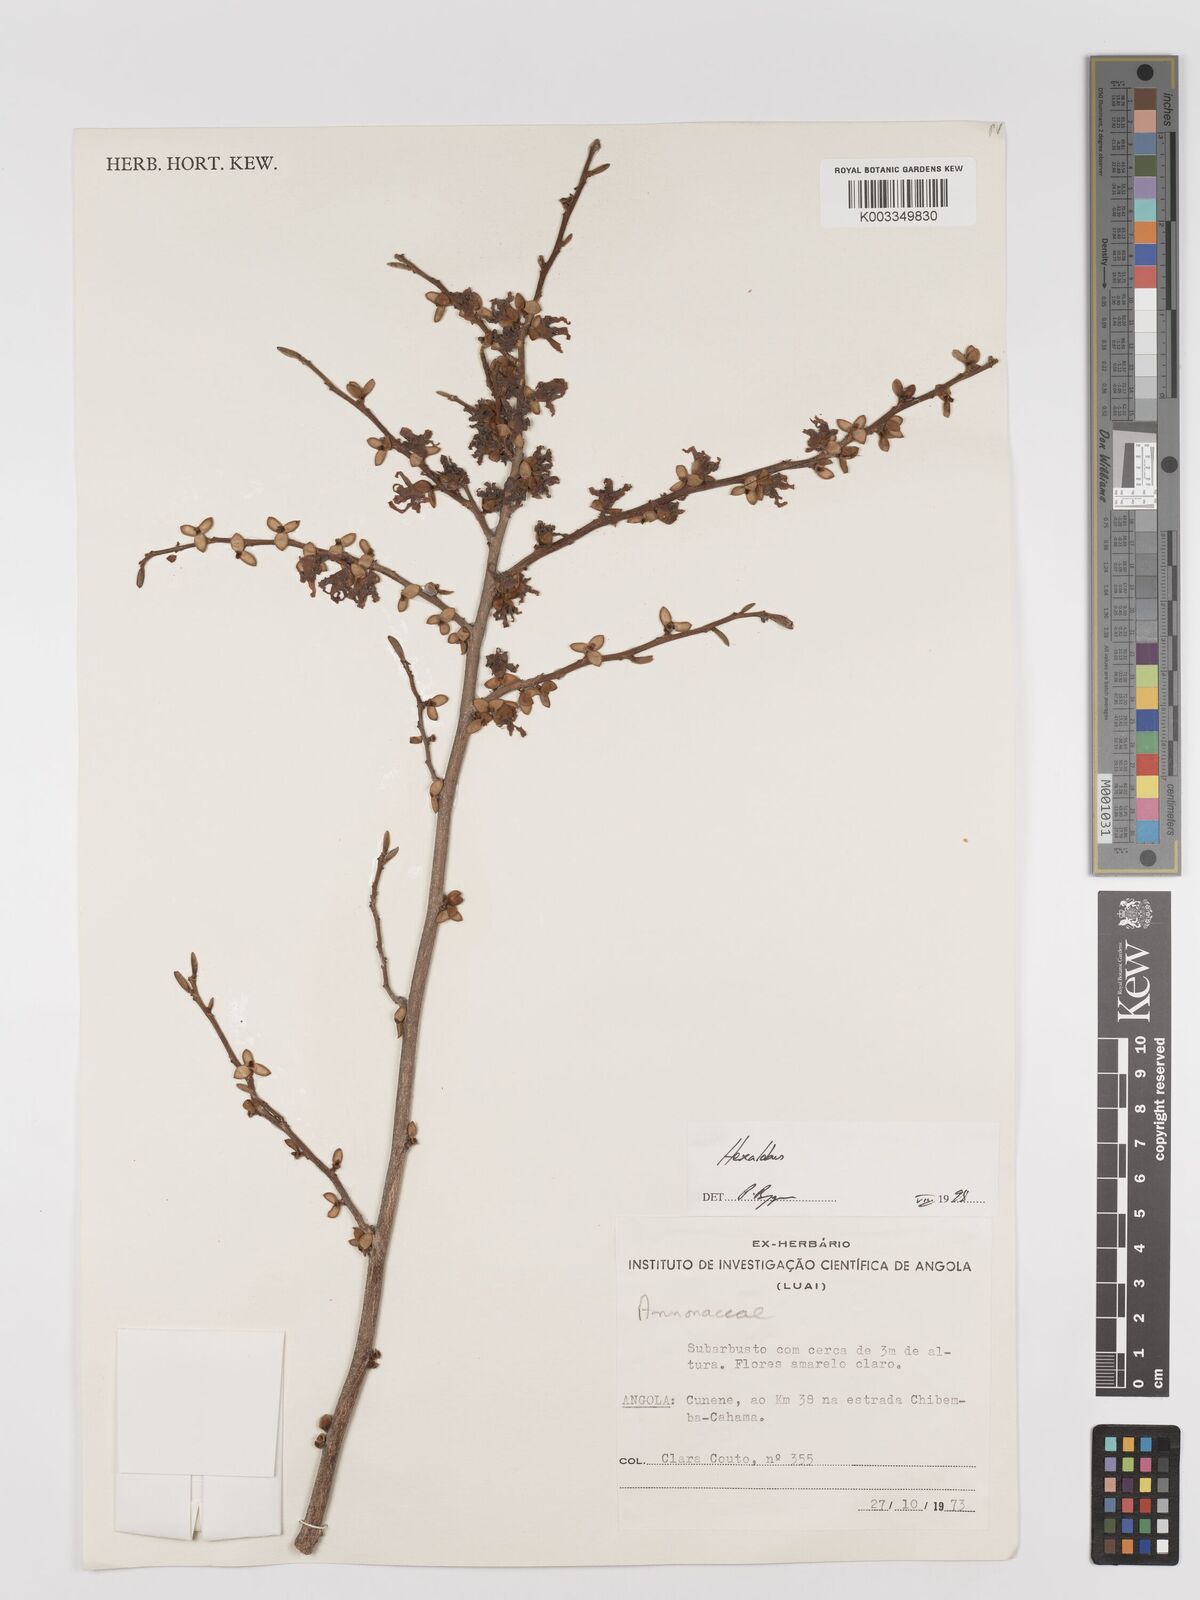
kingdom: Plantae
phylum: Tracheophyta
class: Magnoliopsida
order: Magnoliales
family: Annonaceae
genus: Hexalobus
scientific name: Hexalobus
